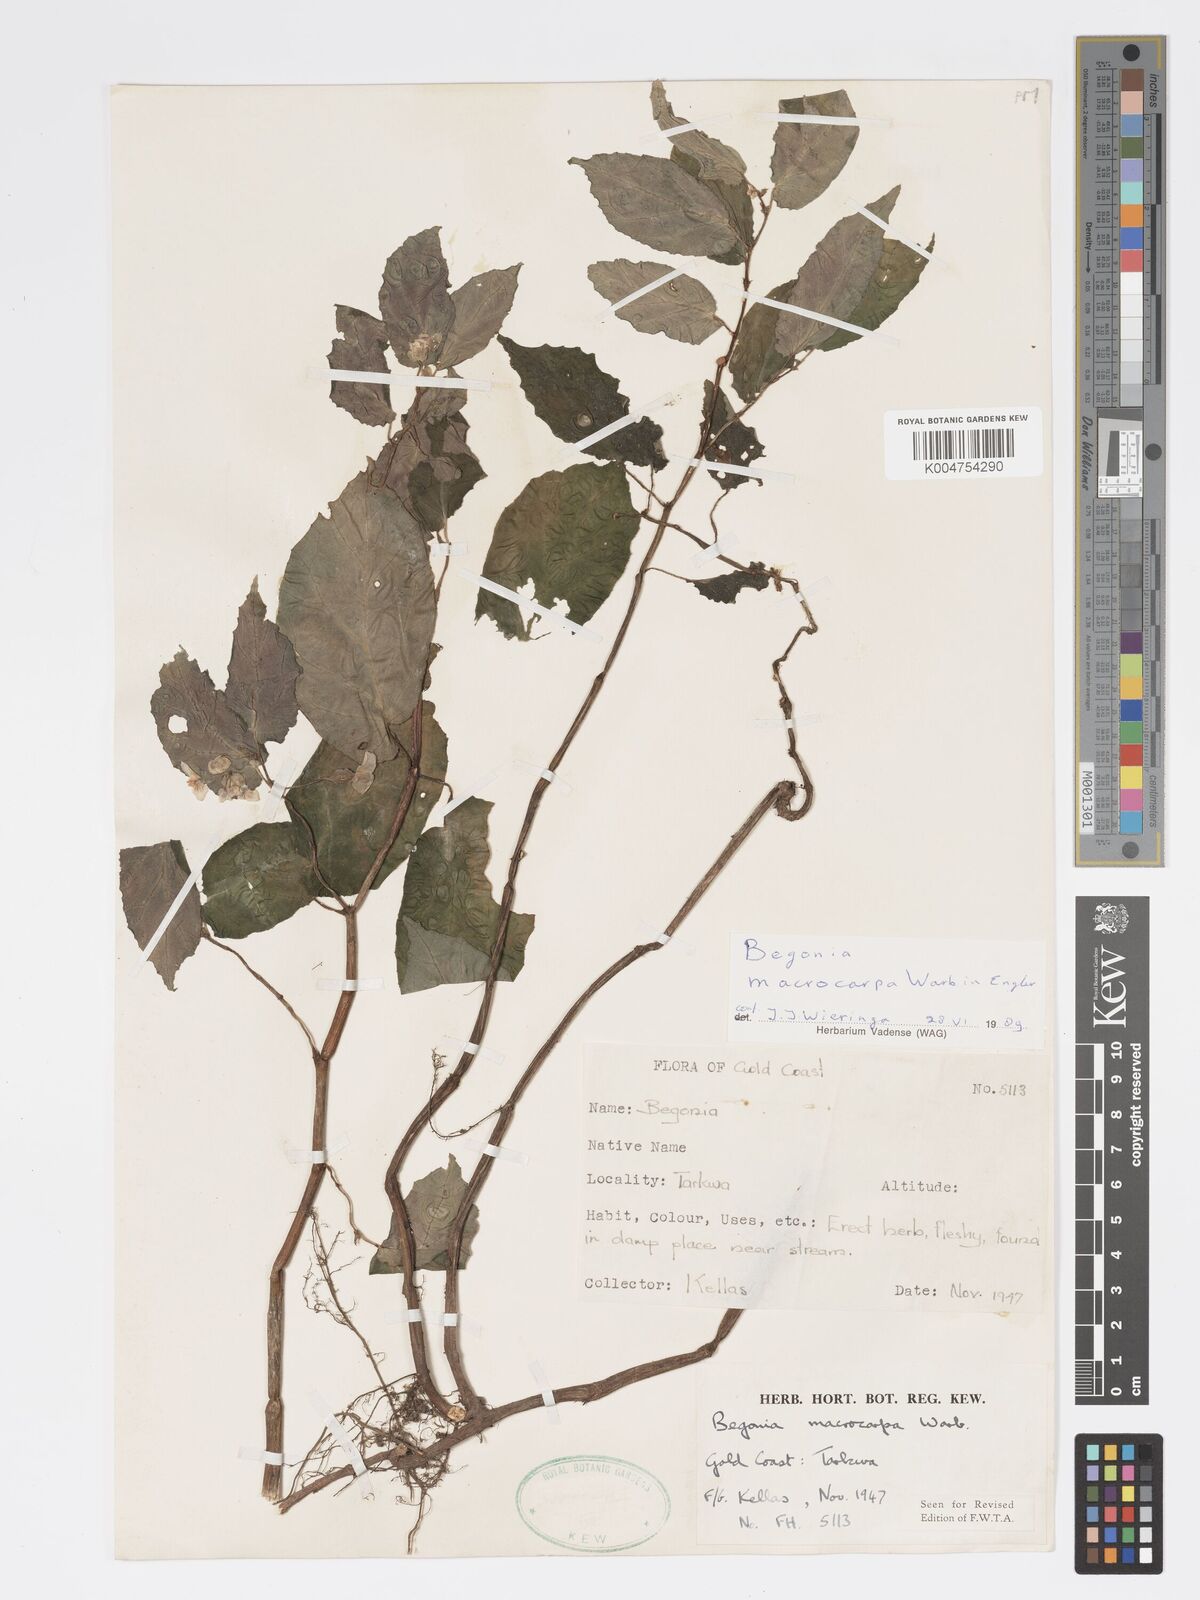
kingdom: Plantae
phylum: Tracheophyta
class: Magnoliopsida
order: Cucurbitales
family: Begoniaceae
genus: Begonia
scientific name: Begonia macrocarpa
